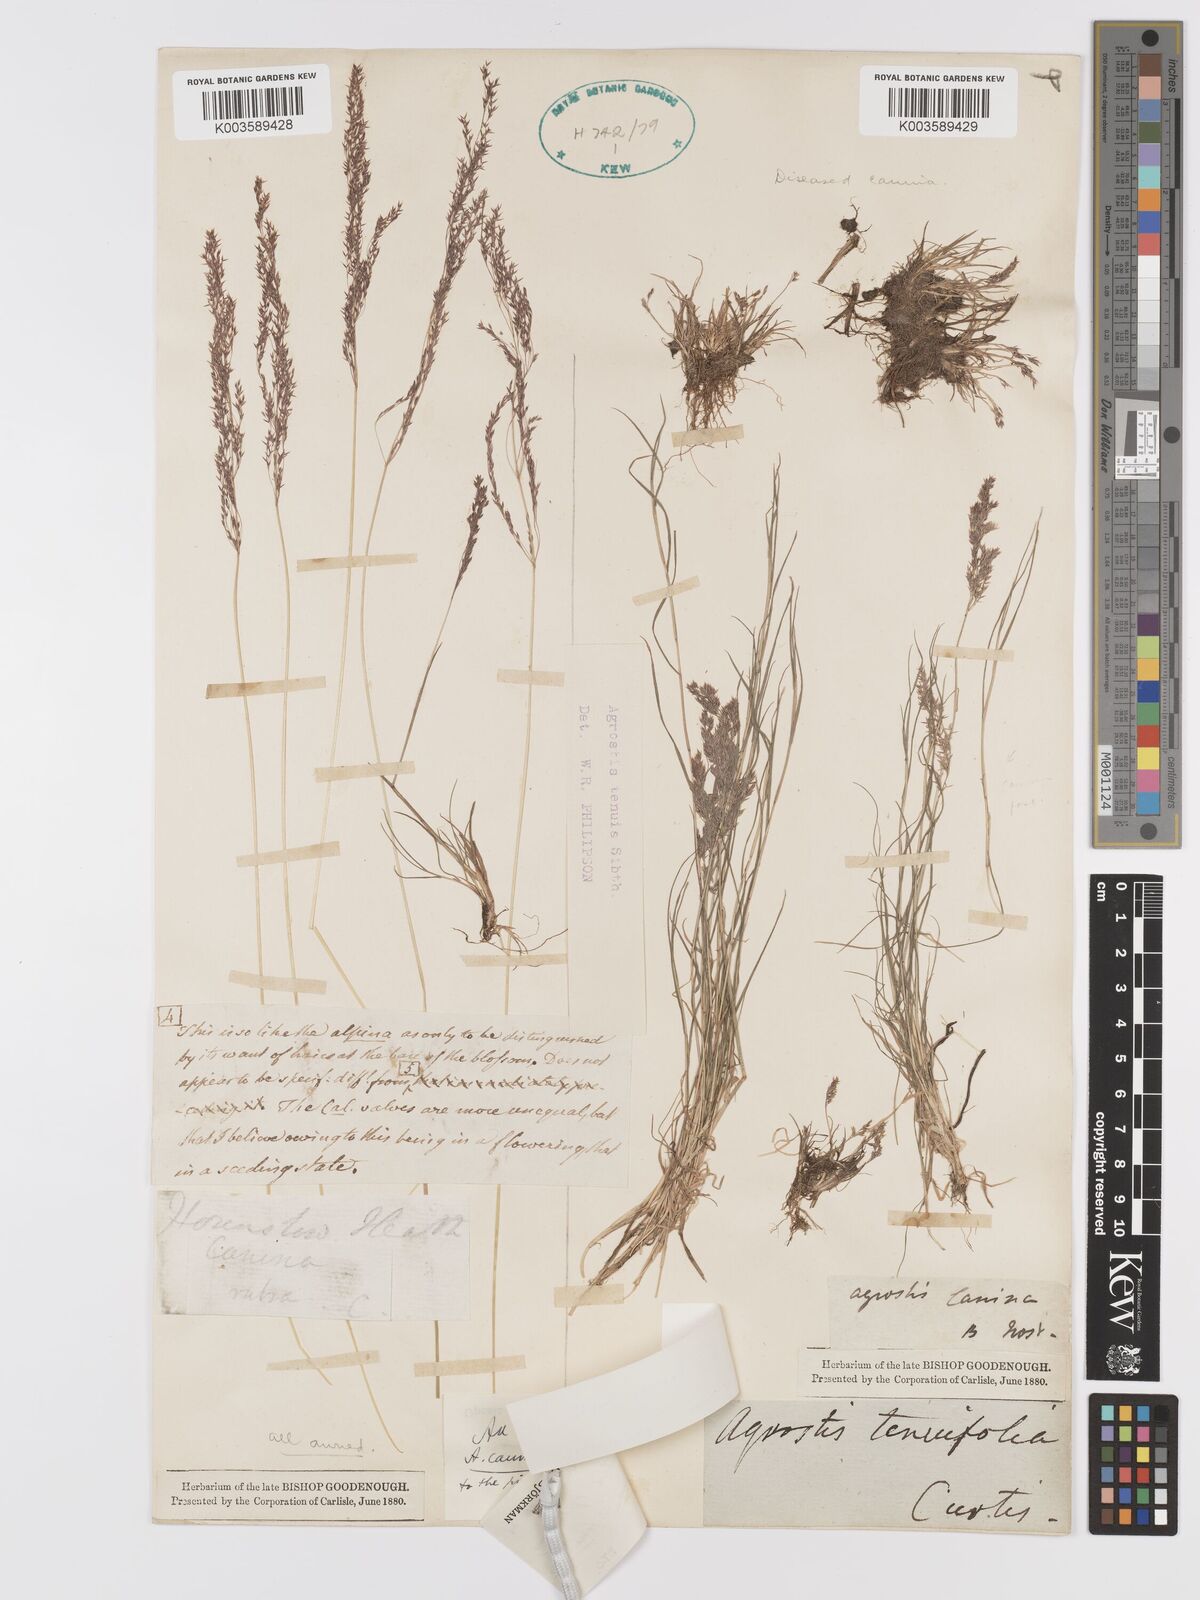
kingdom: Plantae
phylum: Tracheophyta
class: Liliopsida
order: Poales
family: Poaceae
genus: Agrostis
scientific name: Agrostis canina
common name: Velvet bent
